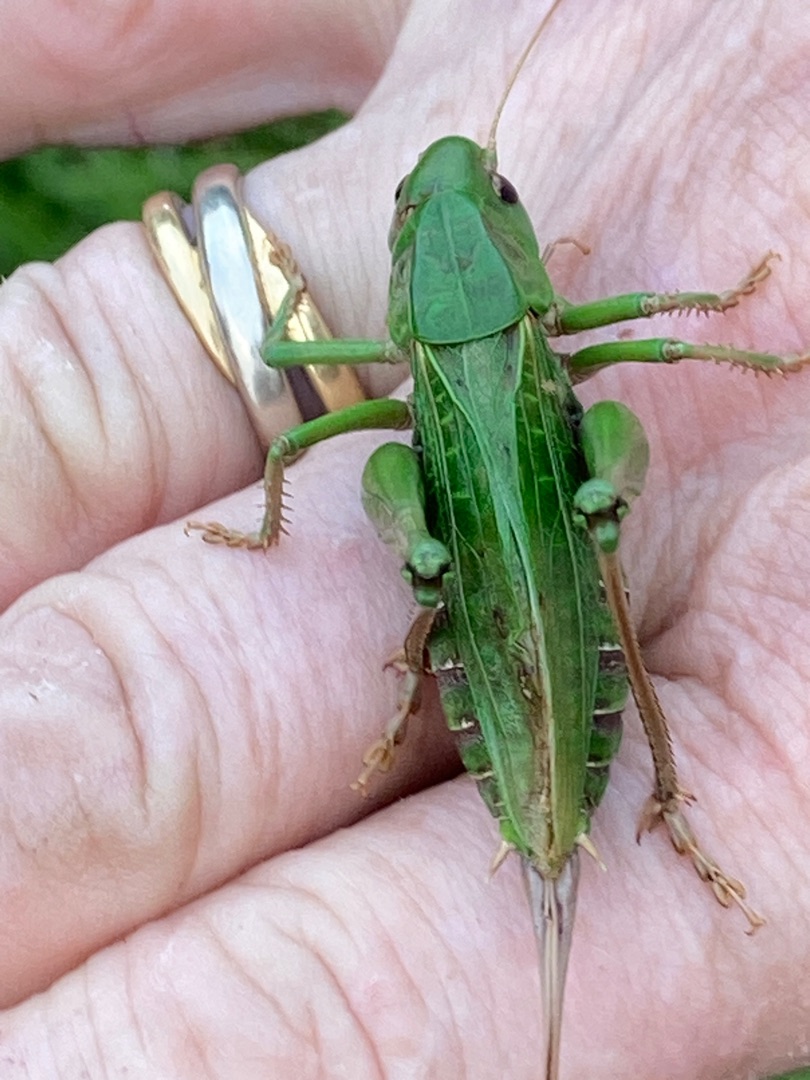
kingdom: Animalia
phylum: Arthropoda
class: Insecta
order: Orthoptera
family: Tettigoniidae
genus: Decticus
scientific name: Decticus verrucivorus
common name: Vortebider
